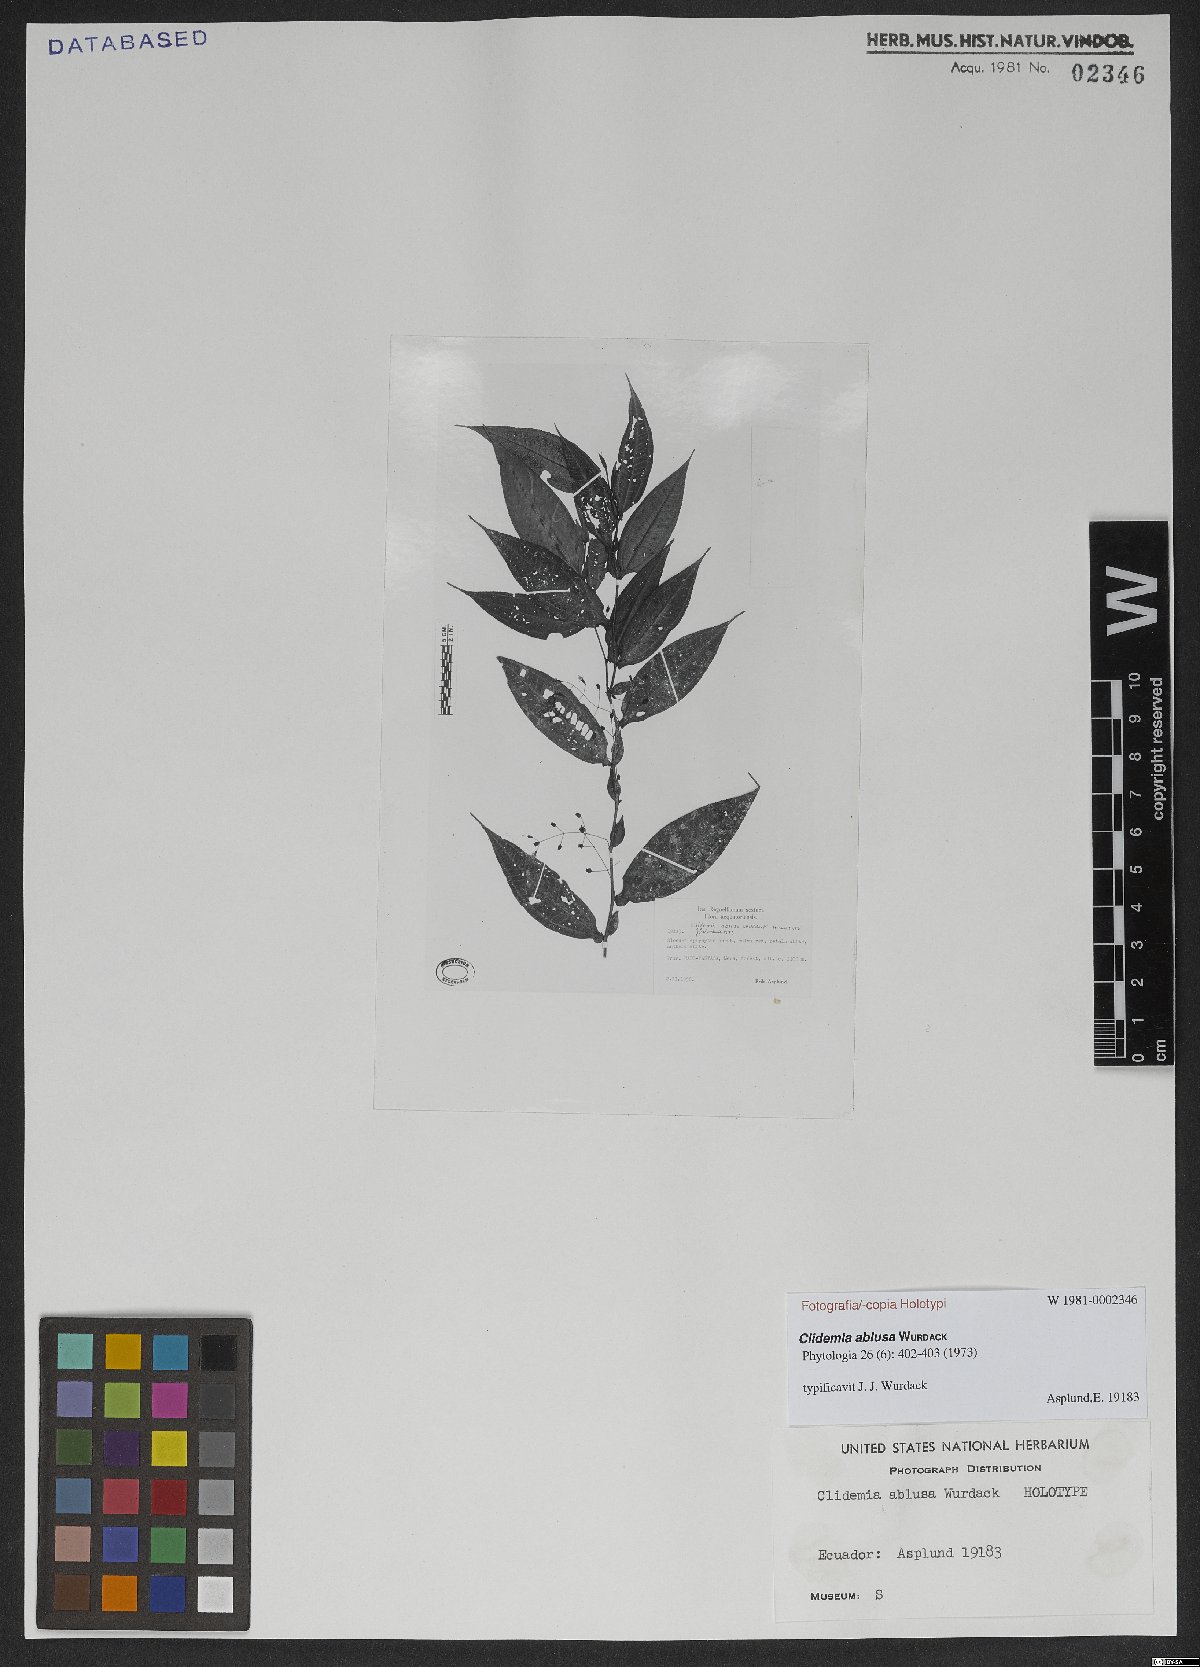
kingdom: Plantae
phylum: Tracheophyta
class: Magnoliopsida
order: Myrtales
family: Melastomataceae
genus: Miconia
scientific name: Miconia ablusa
